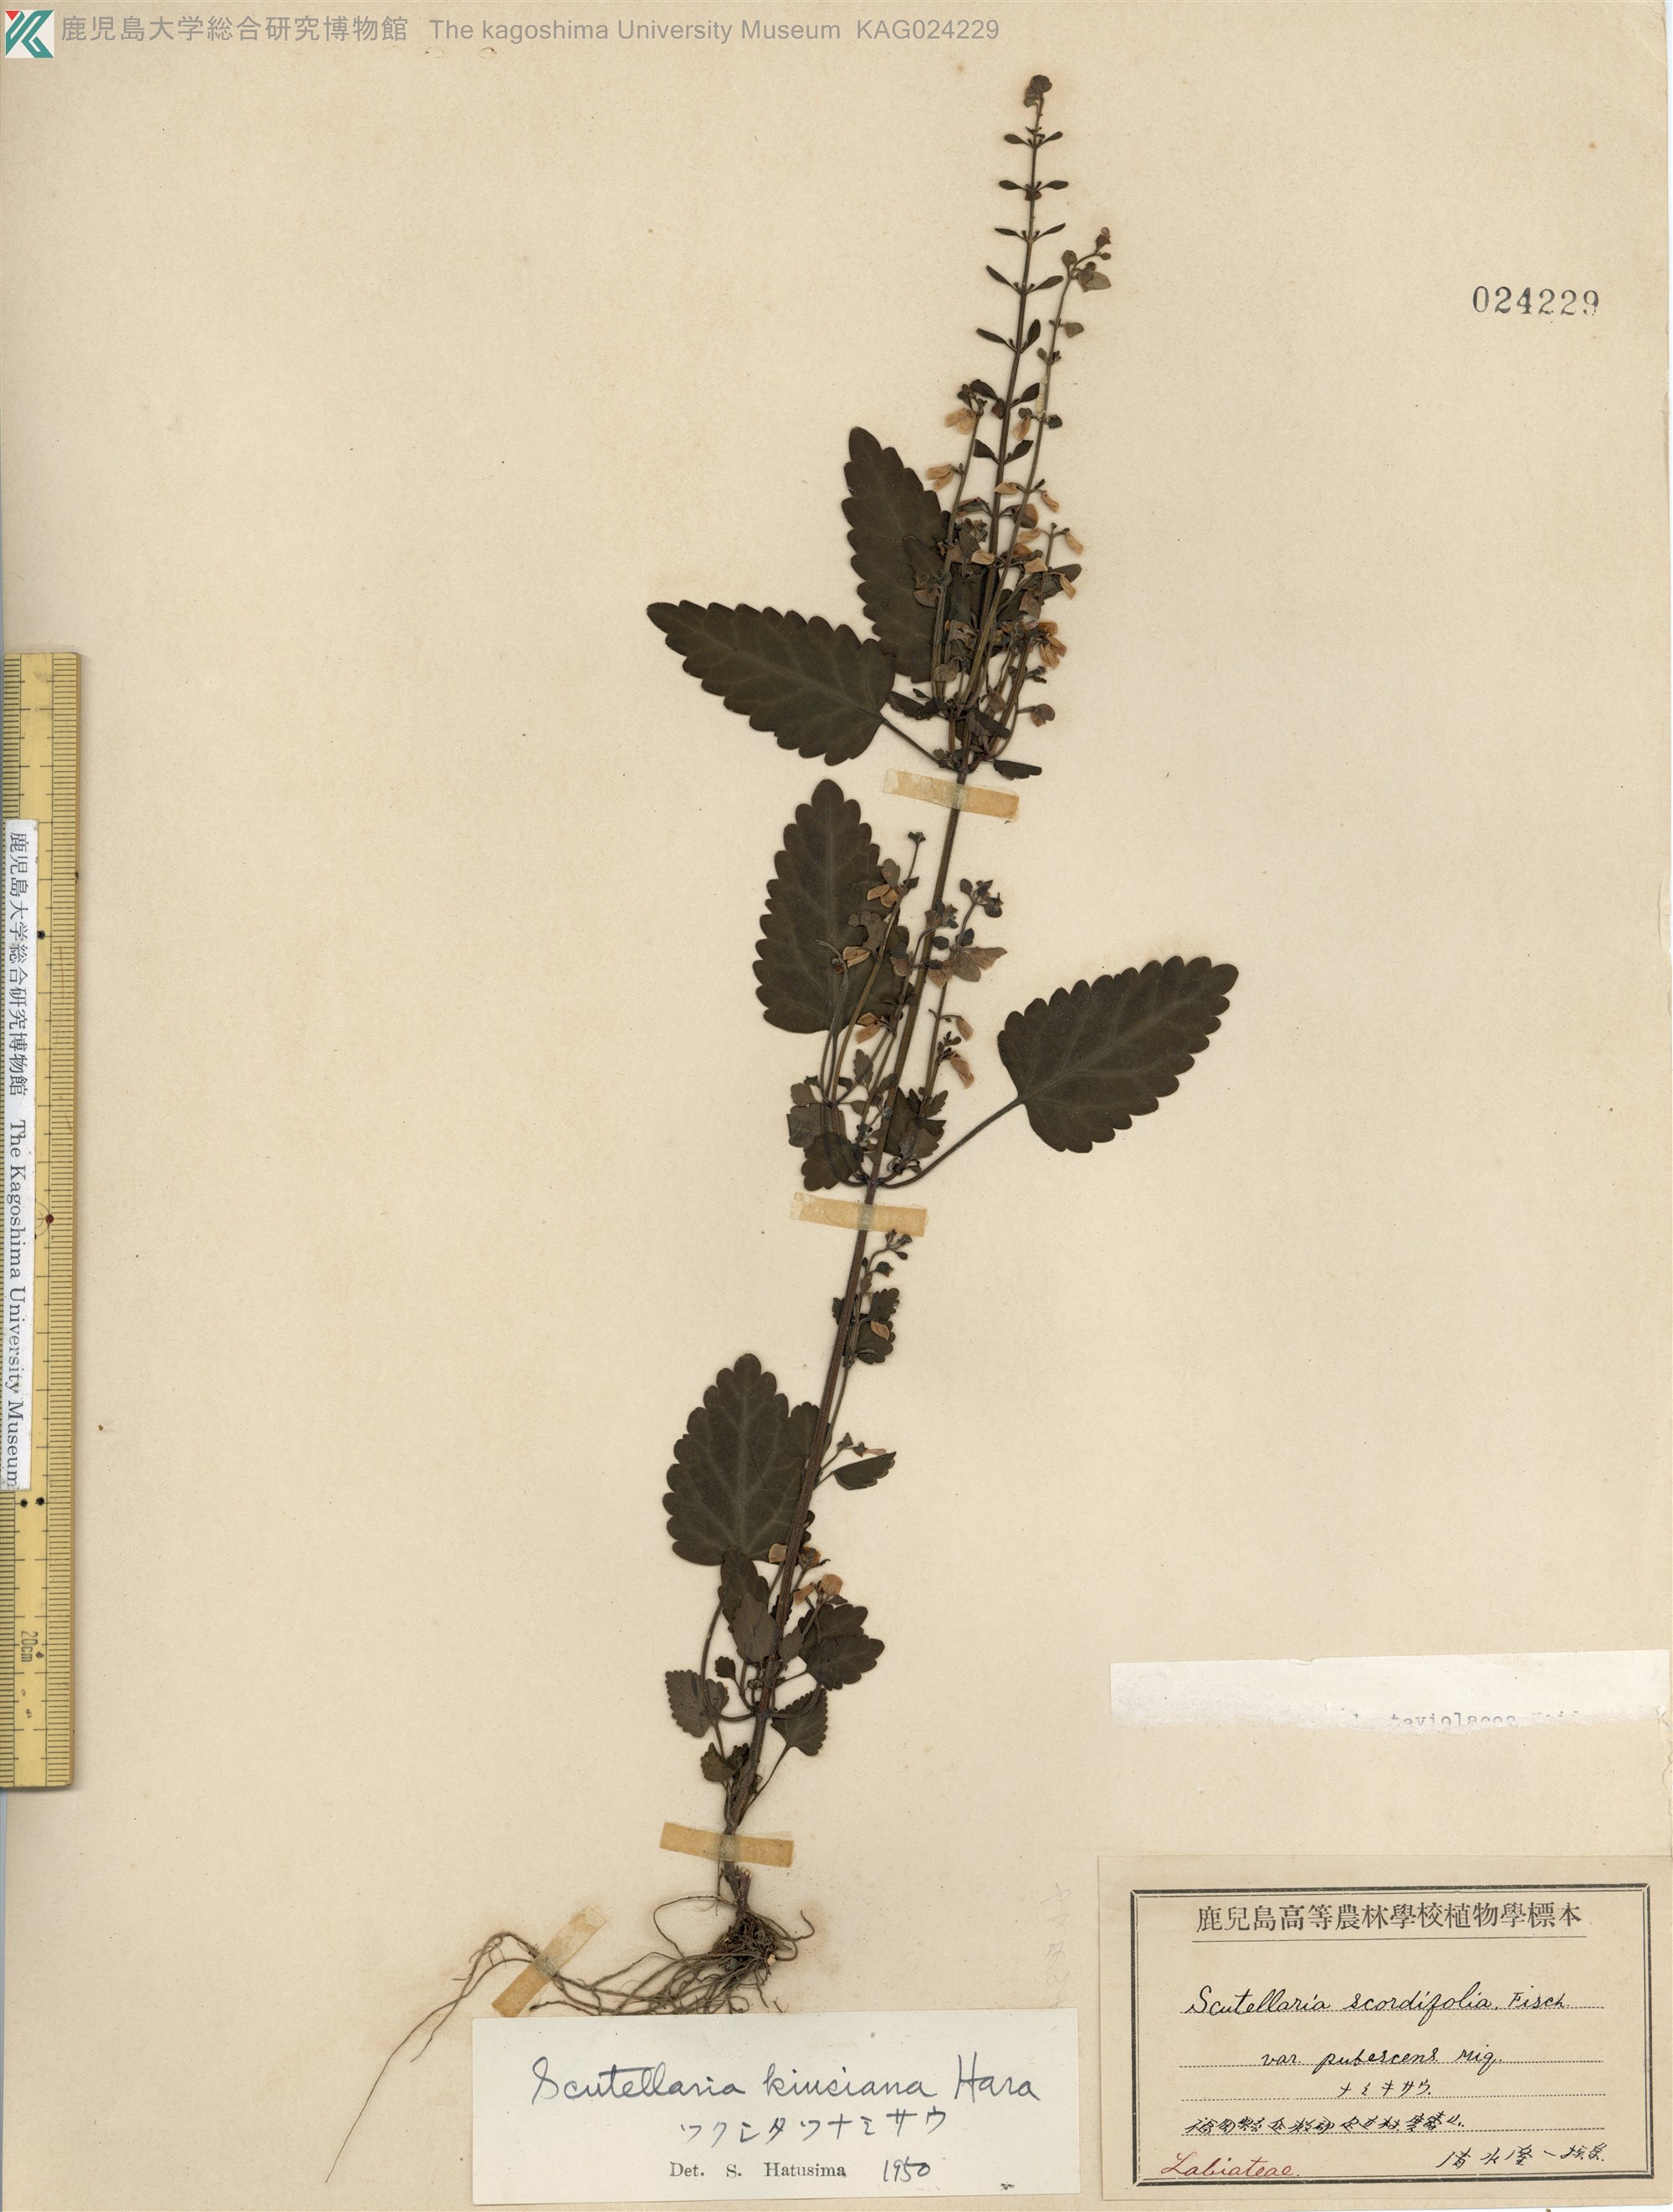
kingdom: Plantae
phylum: Tracheophyta
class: Magnoliopsida
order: Lamiales
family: Lamiaceae
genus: Scutellaria
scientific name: Scutellaria kiusiana
